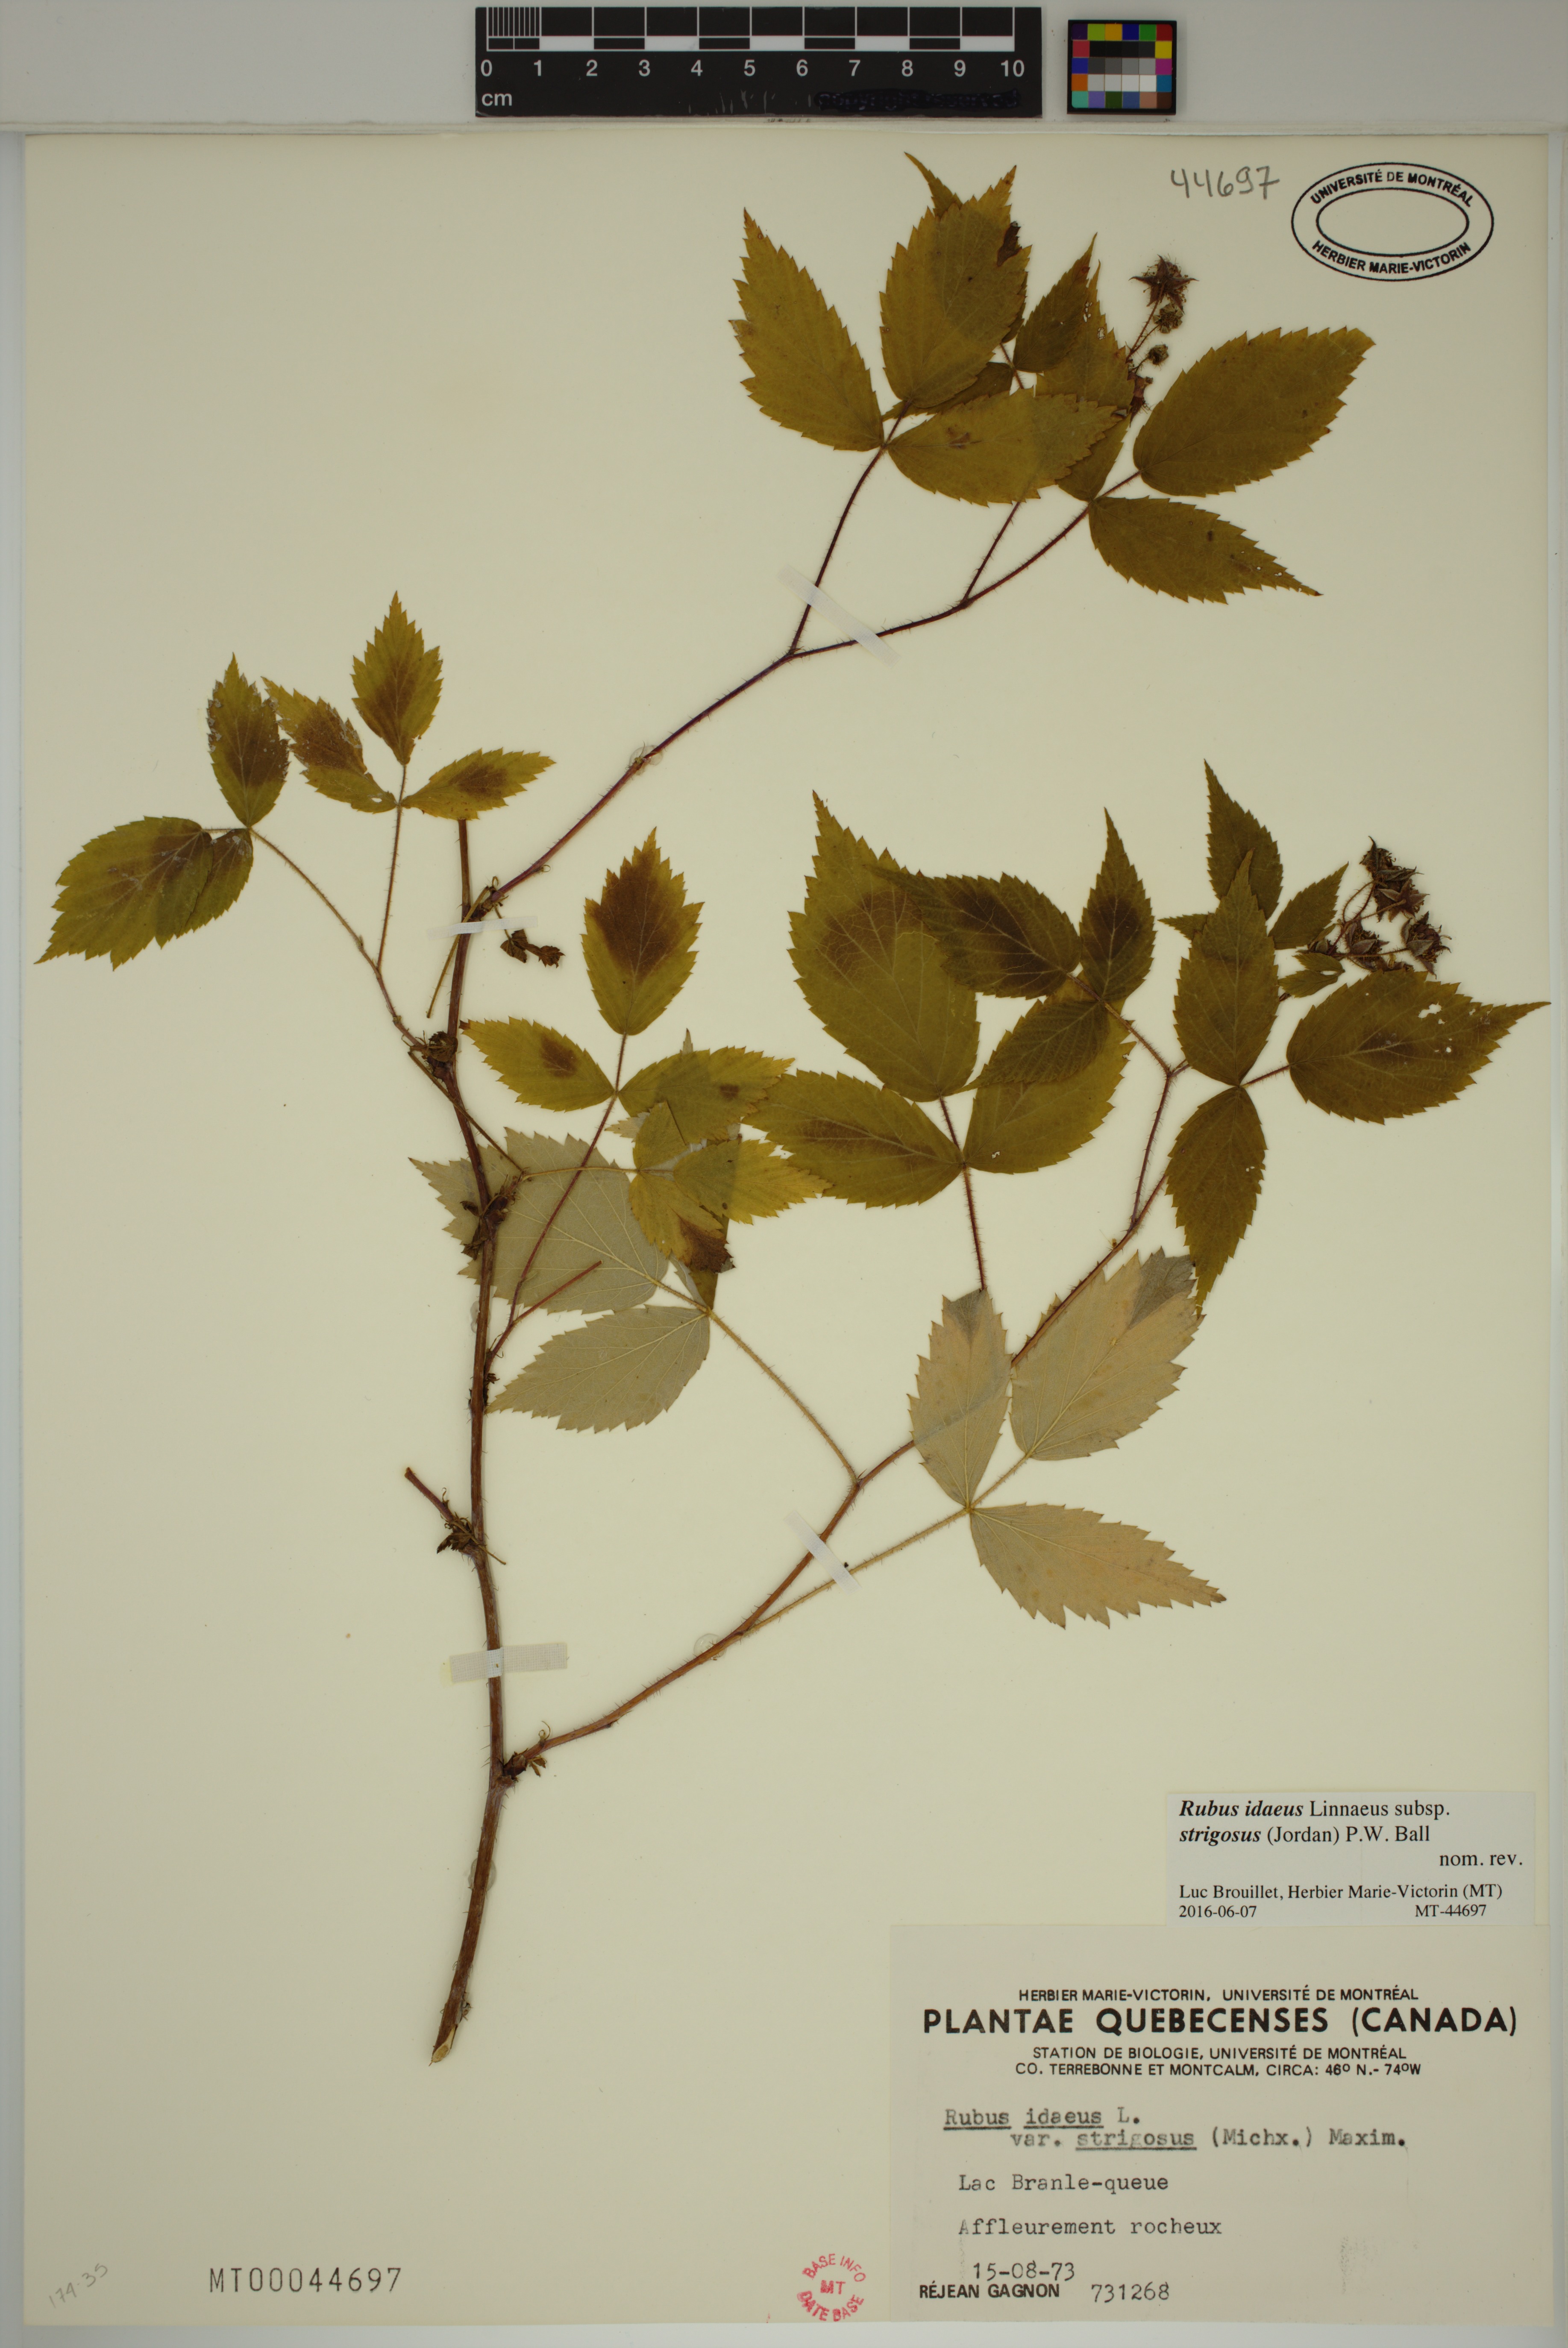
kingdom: Plantae
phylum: Tracheophyta
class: Magnoliopsida
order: Rosales
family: Rosaceae
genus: Rubus
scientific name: Rubus sachalinensis
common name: Red raspberry
